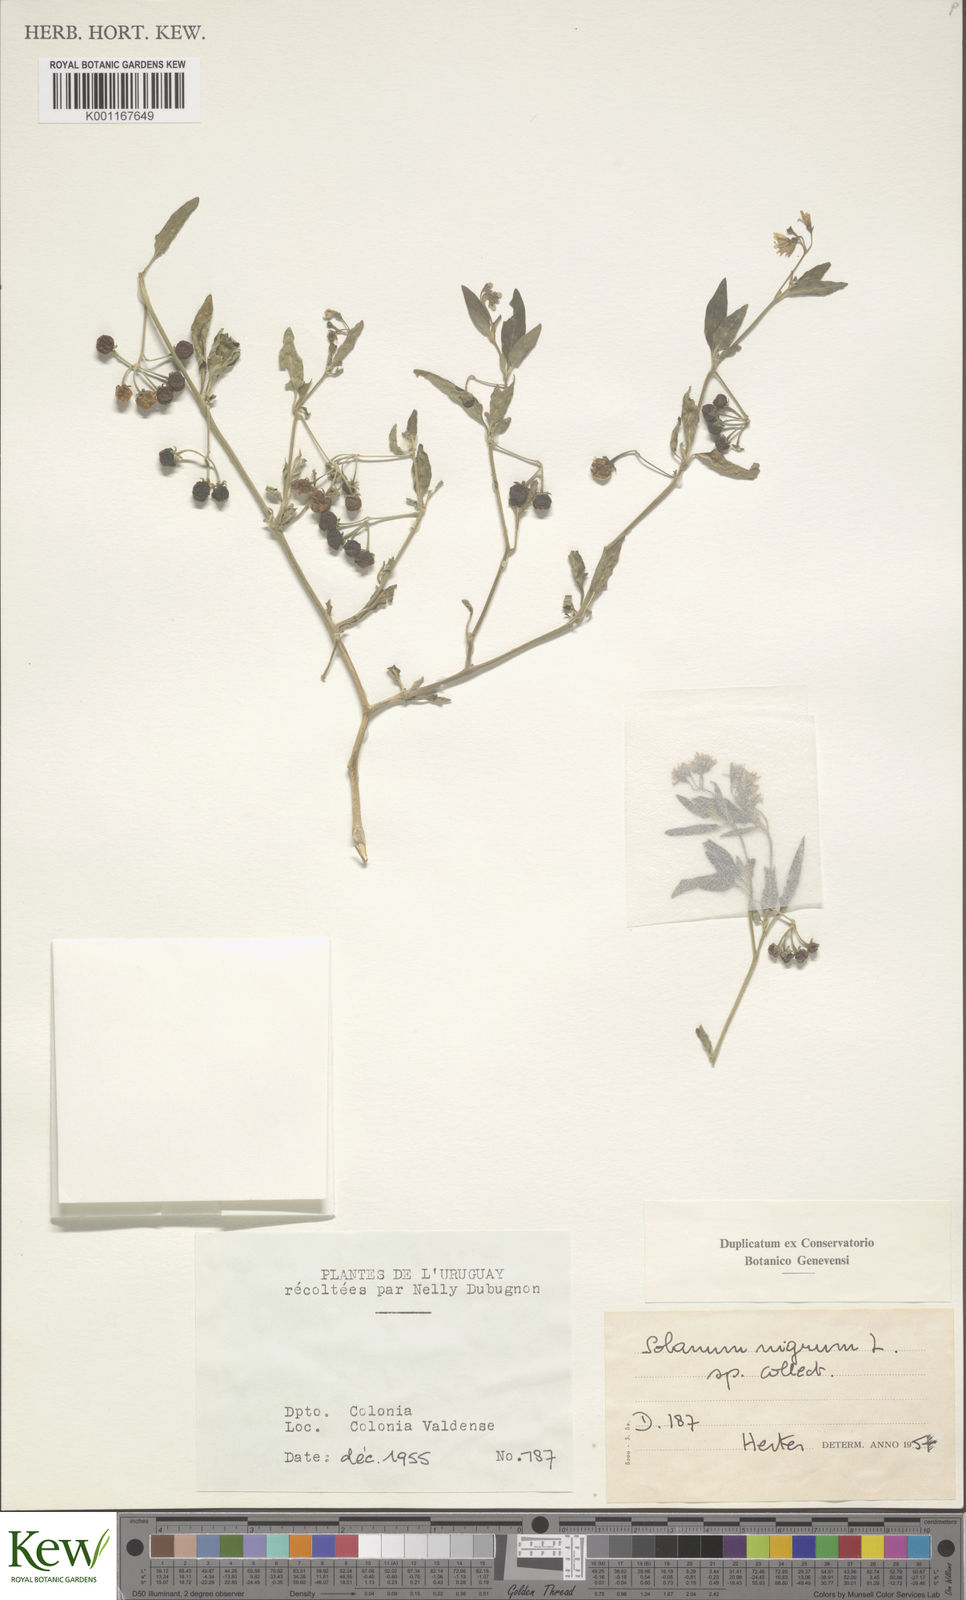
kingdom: Plantae
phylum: Tracheophyta
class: Magnoliopsida
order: Solanales
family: Solanaceae
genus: Solanum
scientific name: Solanum chenopodioides
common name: Tall nightshade
